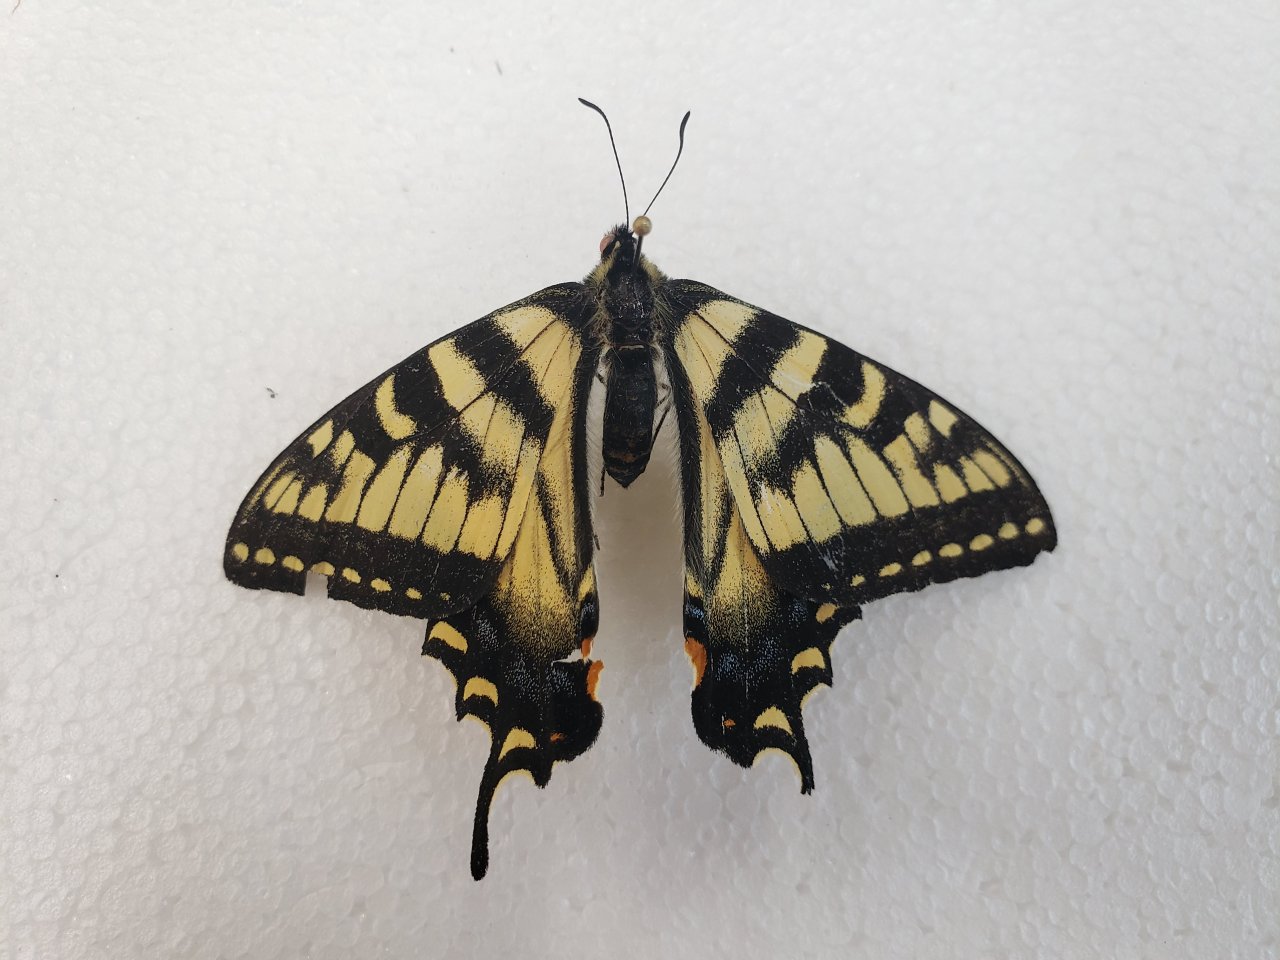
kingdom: Animalia
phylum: Arthropoda
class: Insecta
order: Lepidoptera
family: Papilionidae
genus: Pterourus
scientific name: Pterourus canadensis
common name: Canadian Tiger Swallowtail
